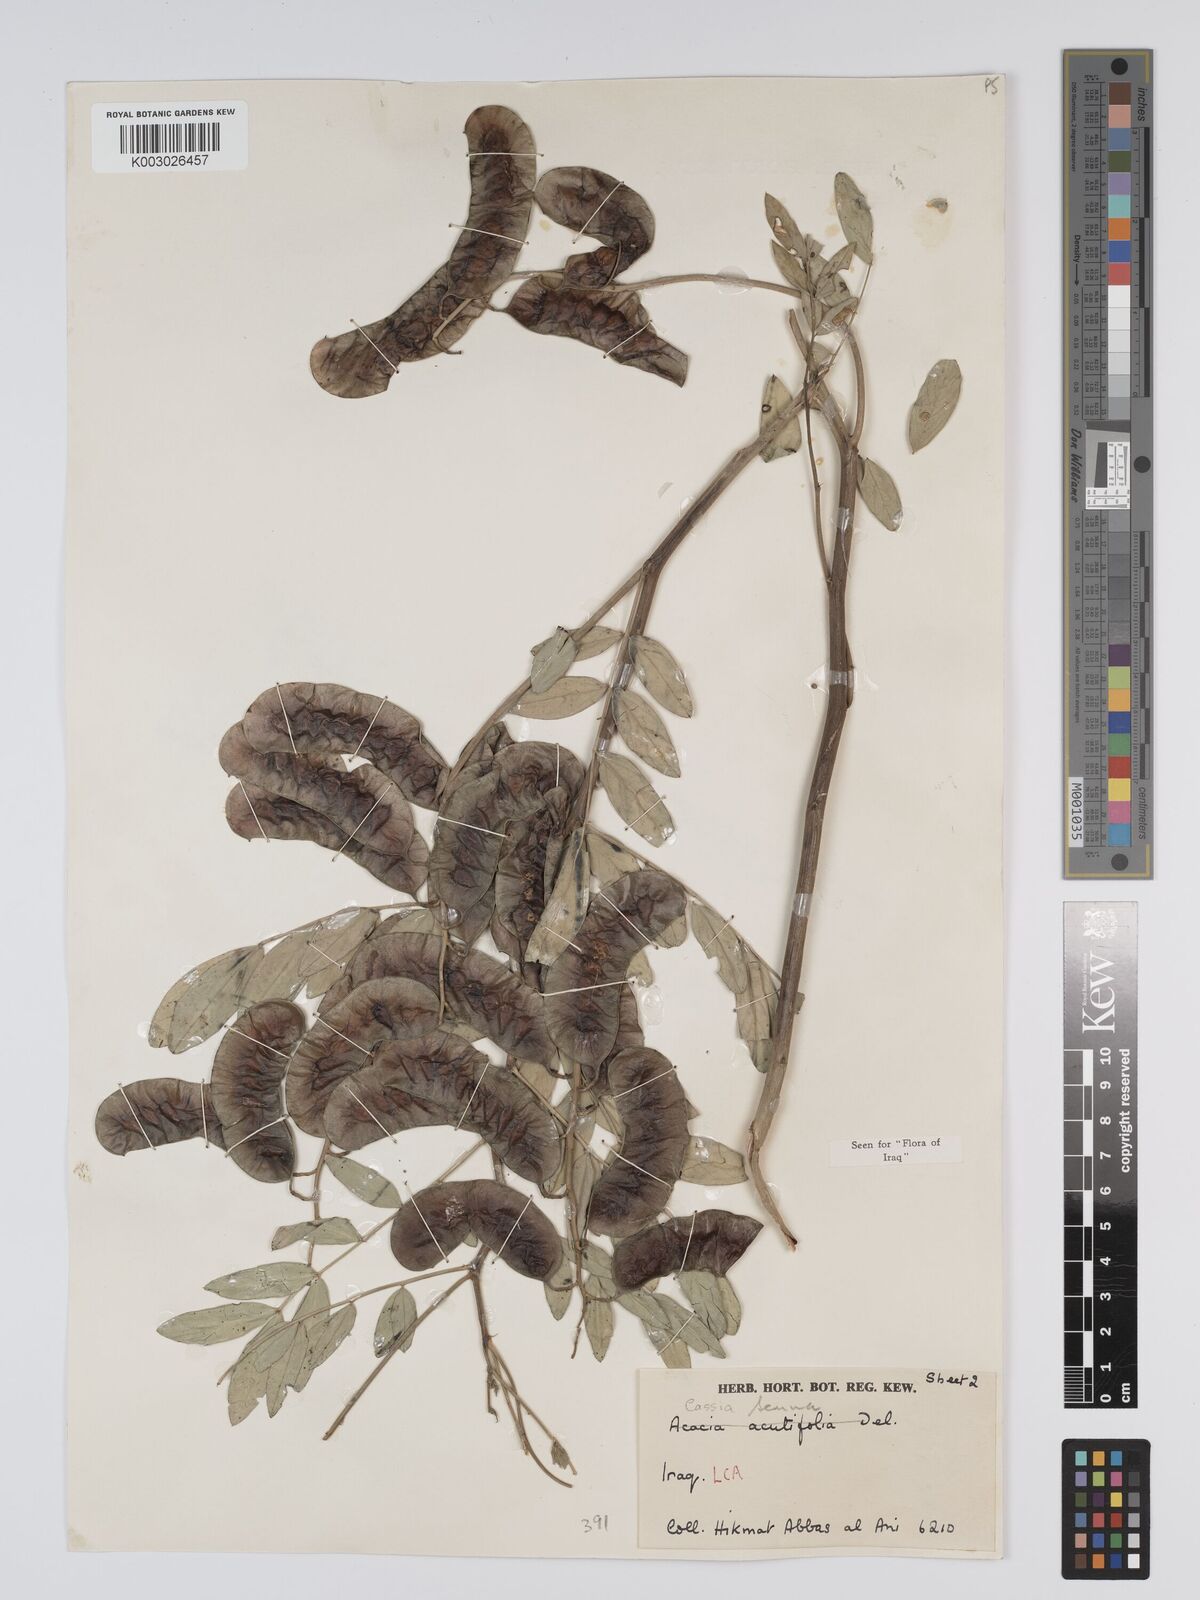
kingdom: Plantae
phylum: Tracheophyta
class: Magnoliopsida
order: Fabales
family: Fabaceae
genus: Senna
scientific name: Senna alexandrina
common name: True senna
